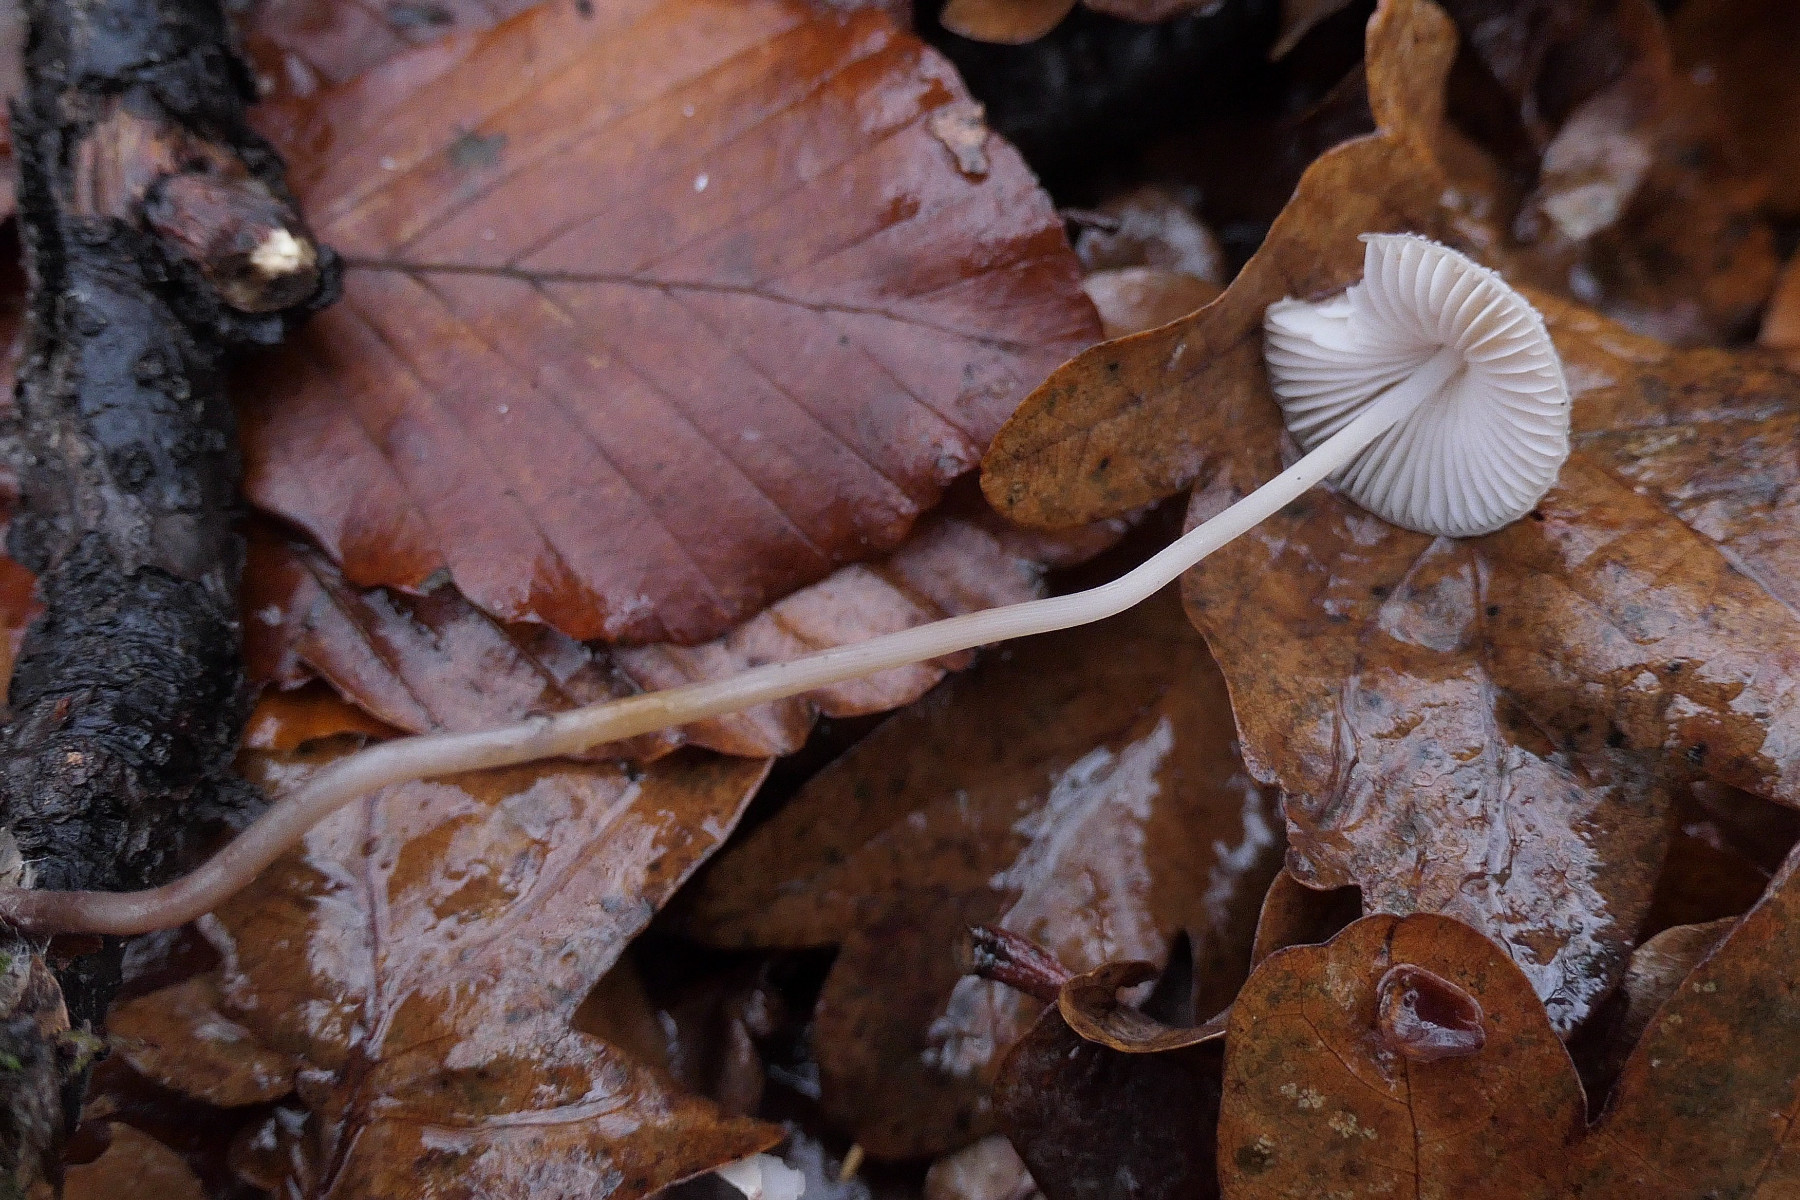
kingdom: Fungi
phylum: Basidiomycota
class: Agaricomycetes
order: Agaricales
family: Mycenaceae
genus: Mycena
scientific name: Mycena vitilis
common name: blankstokket huesvamp
